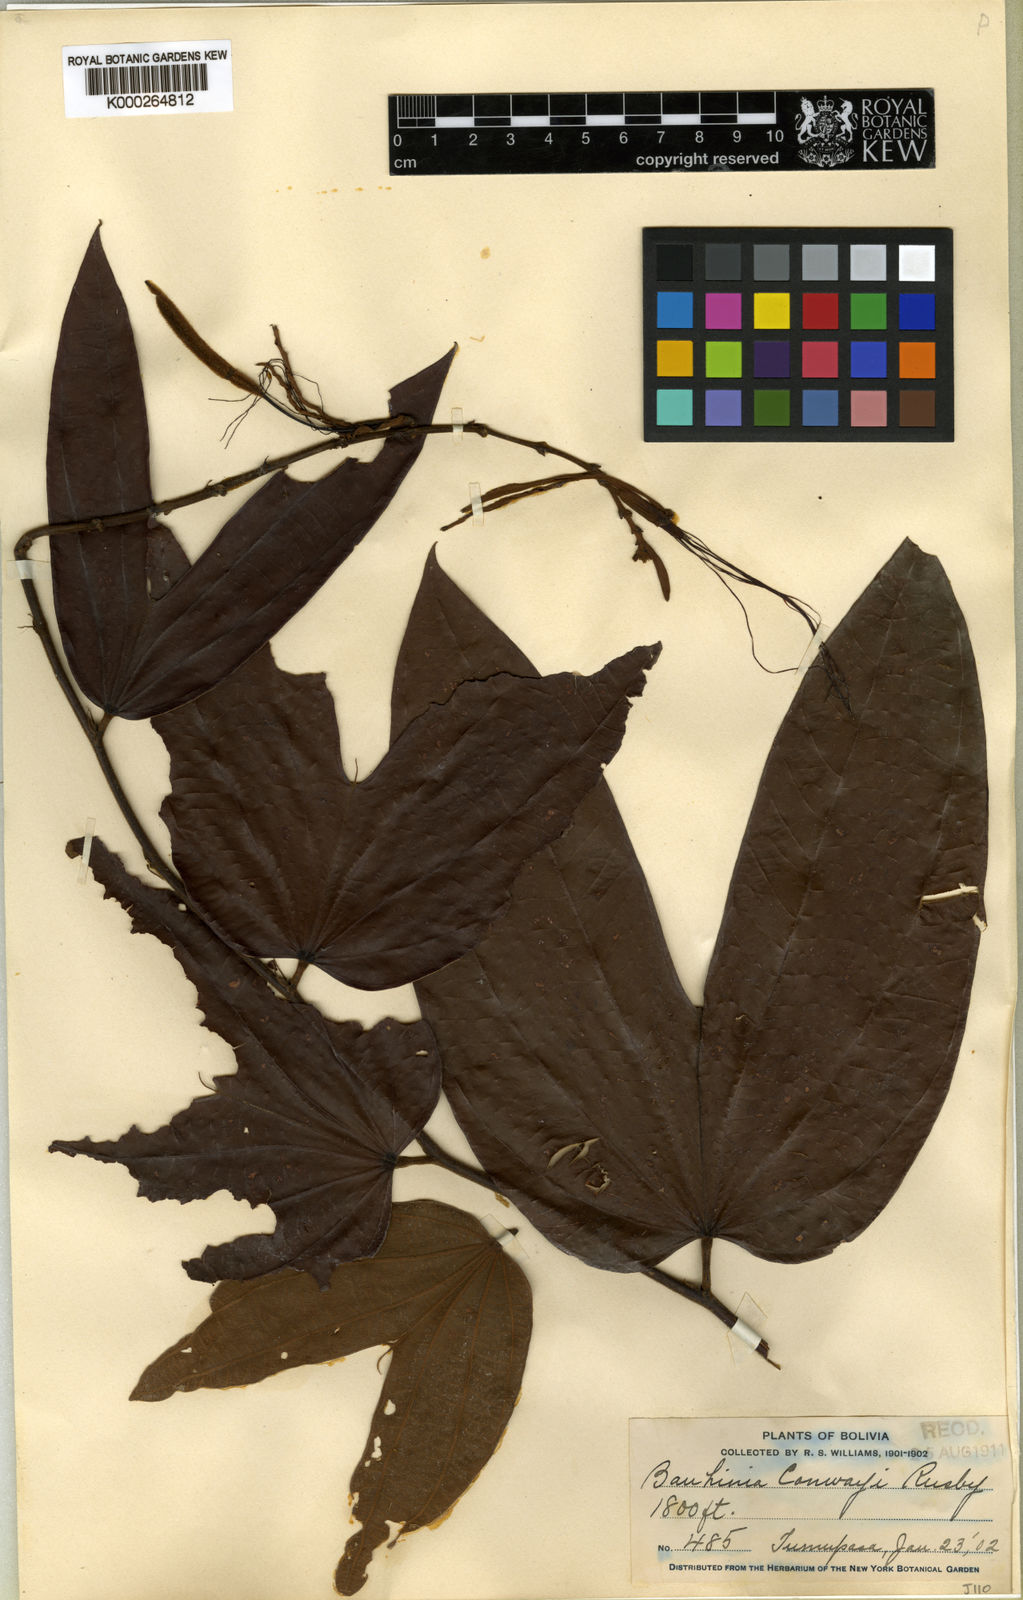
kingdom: Plantae
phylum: Tracheophyta
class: Magnoliopsida
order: Fabales
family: Fabaceae
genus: Bauhinia
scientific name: Bauhinia conwayi
